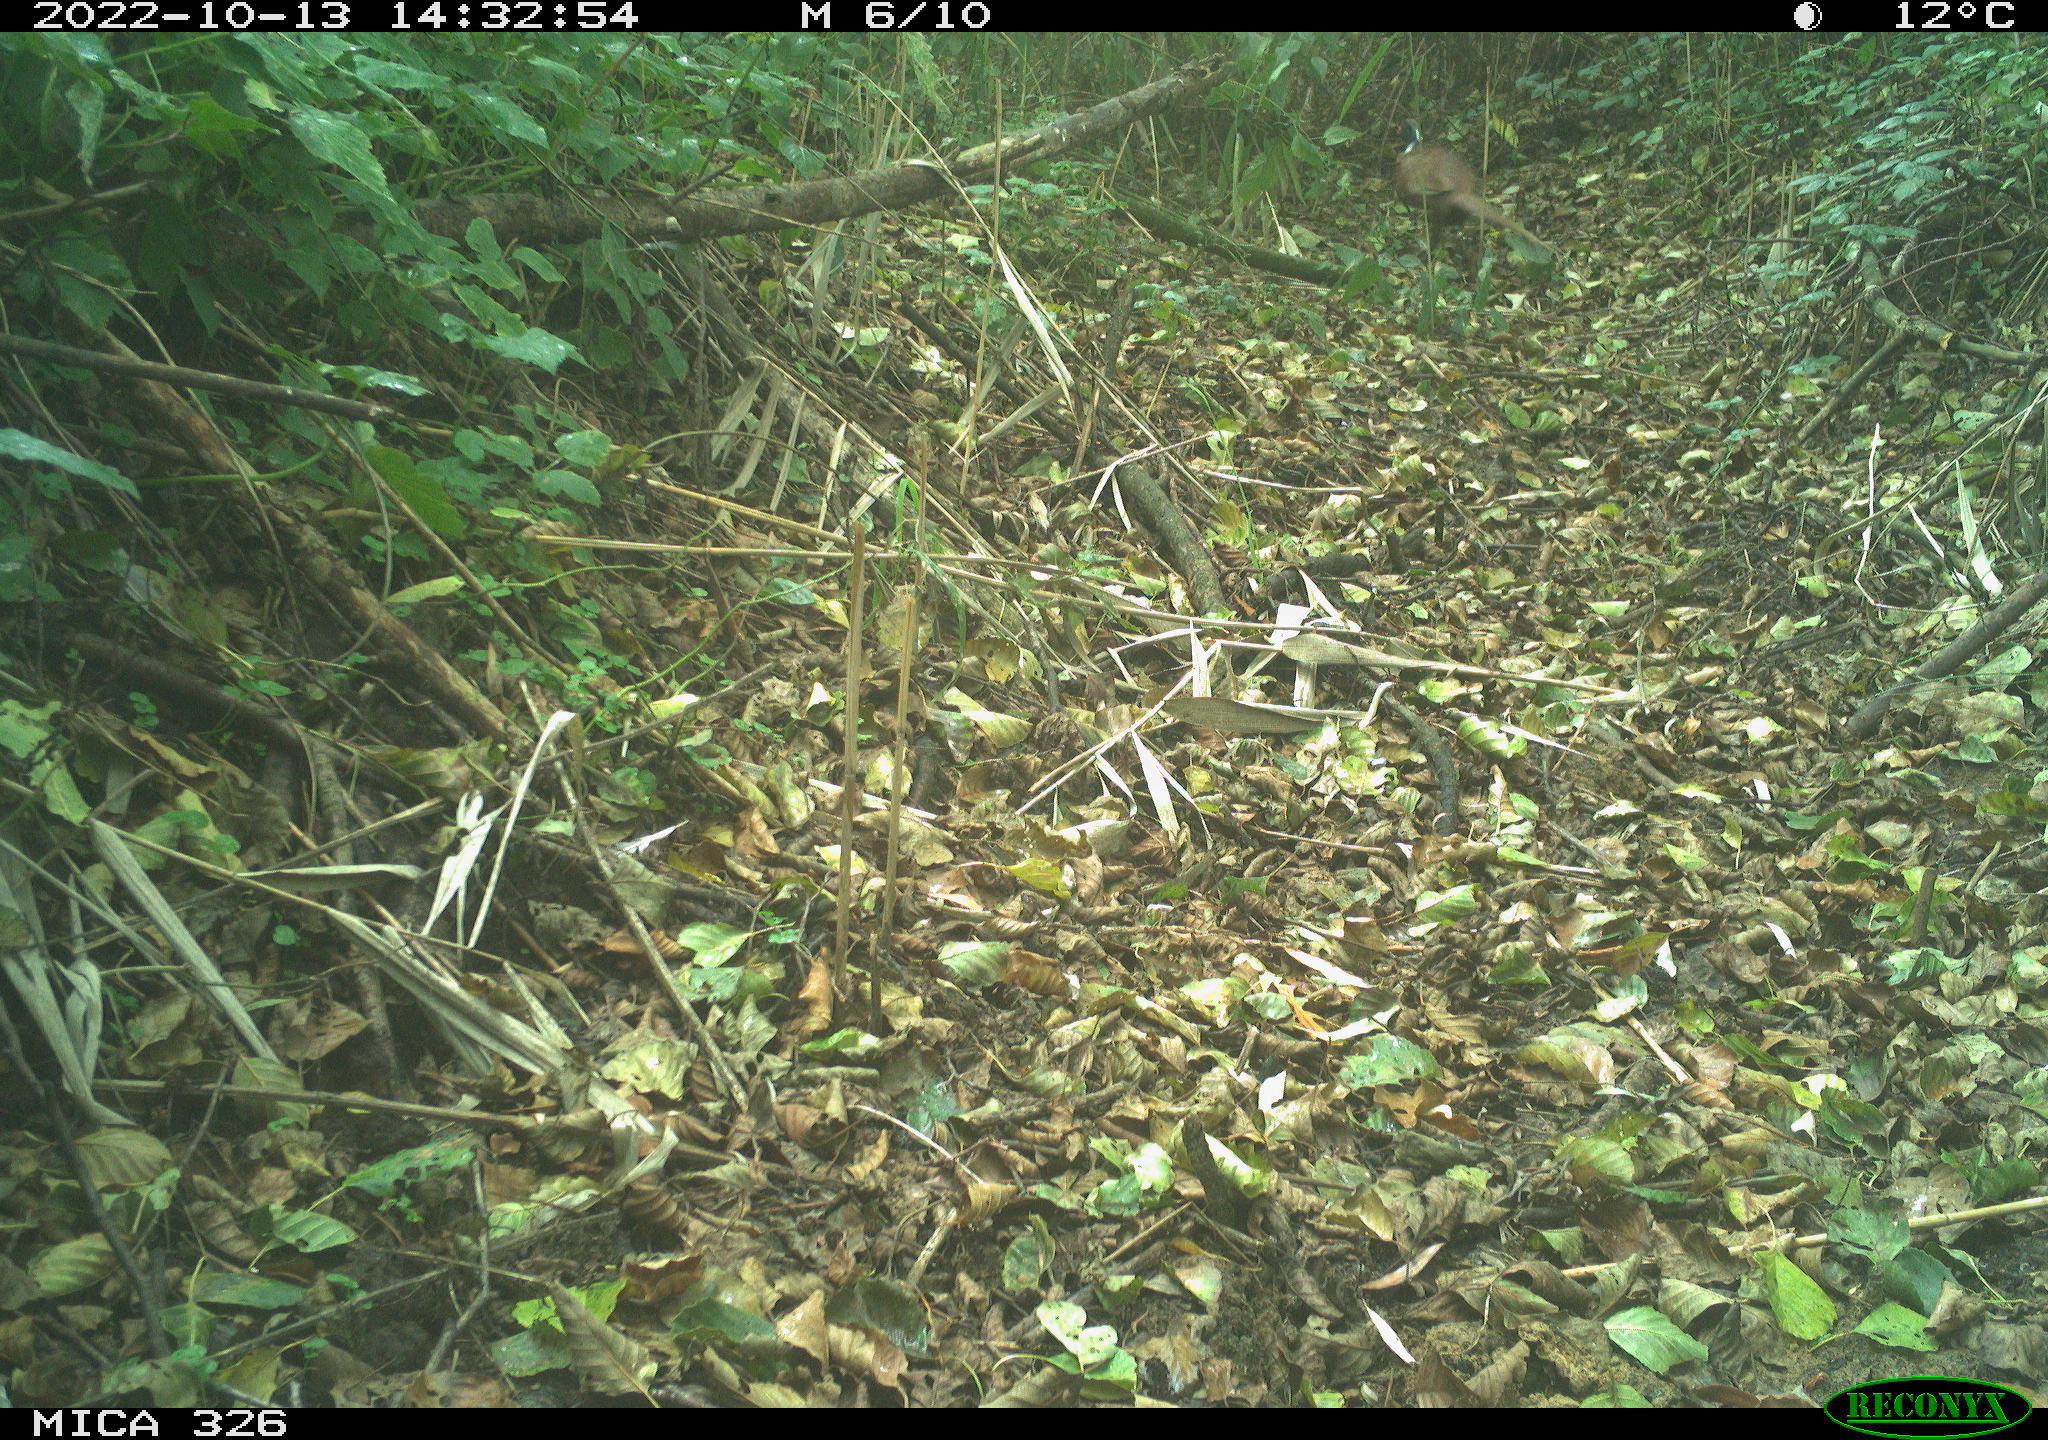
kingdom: Animalia
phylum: Chordata
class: Aves
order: Galliformes
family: Phasianidae
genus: Phasianus
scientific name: Phasianus colchicus
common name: Common pheasant
